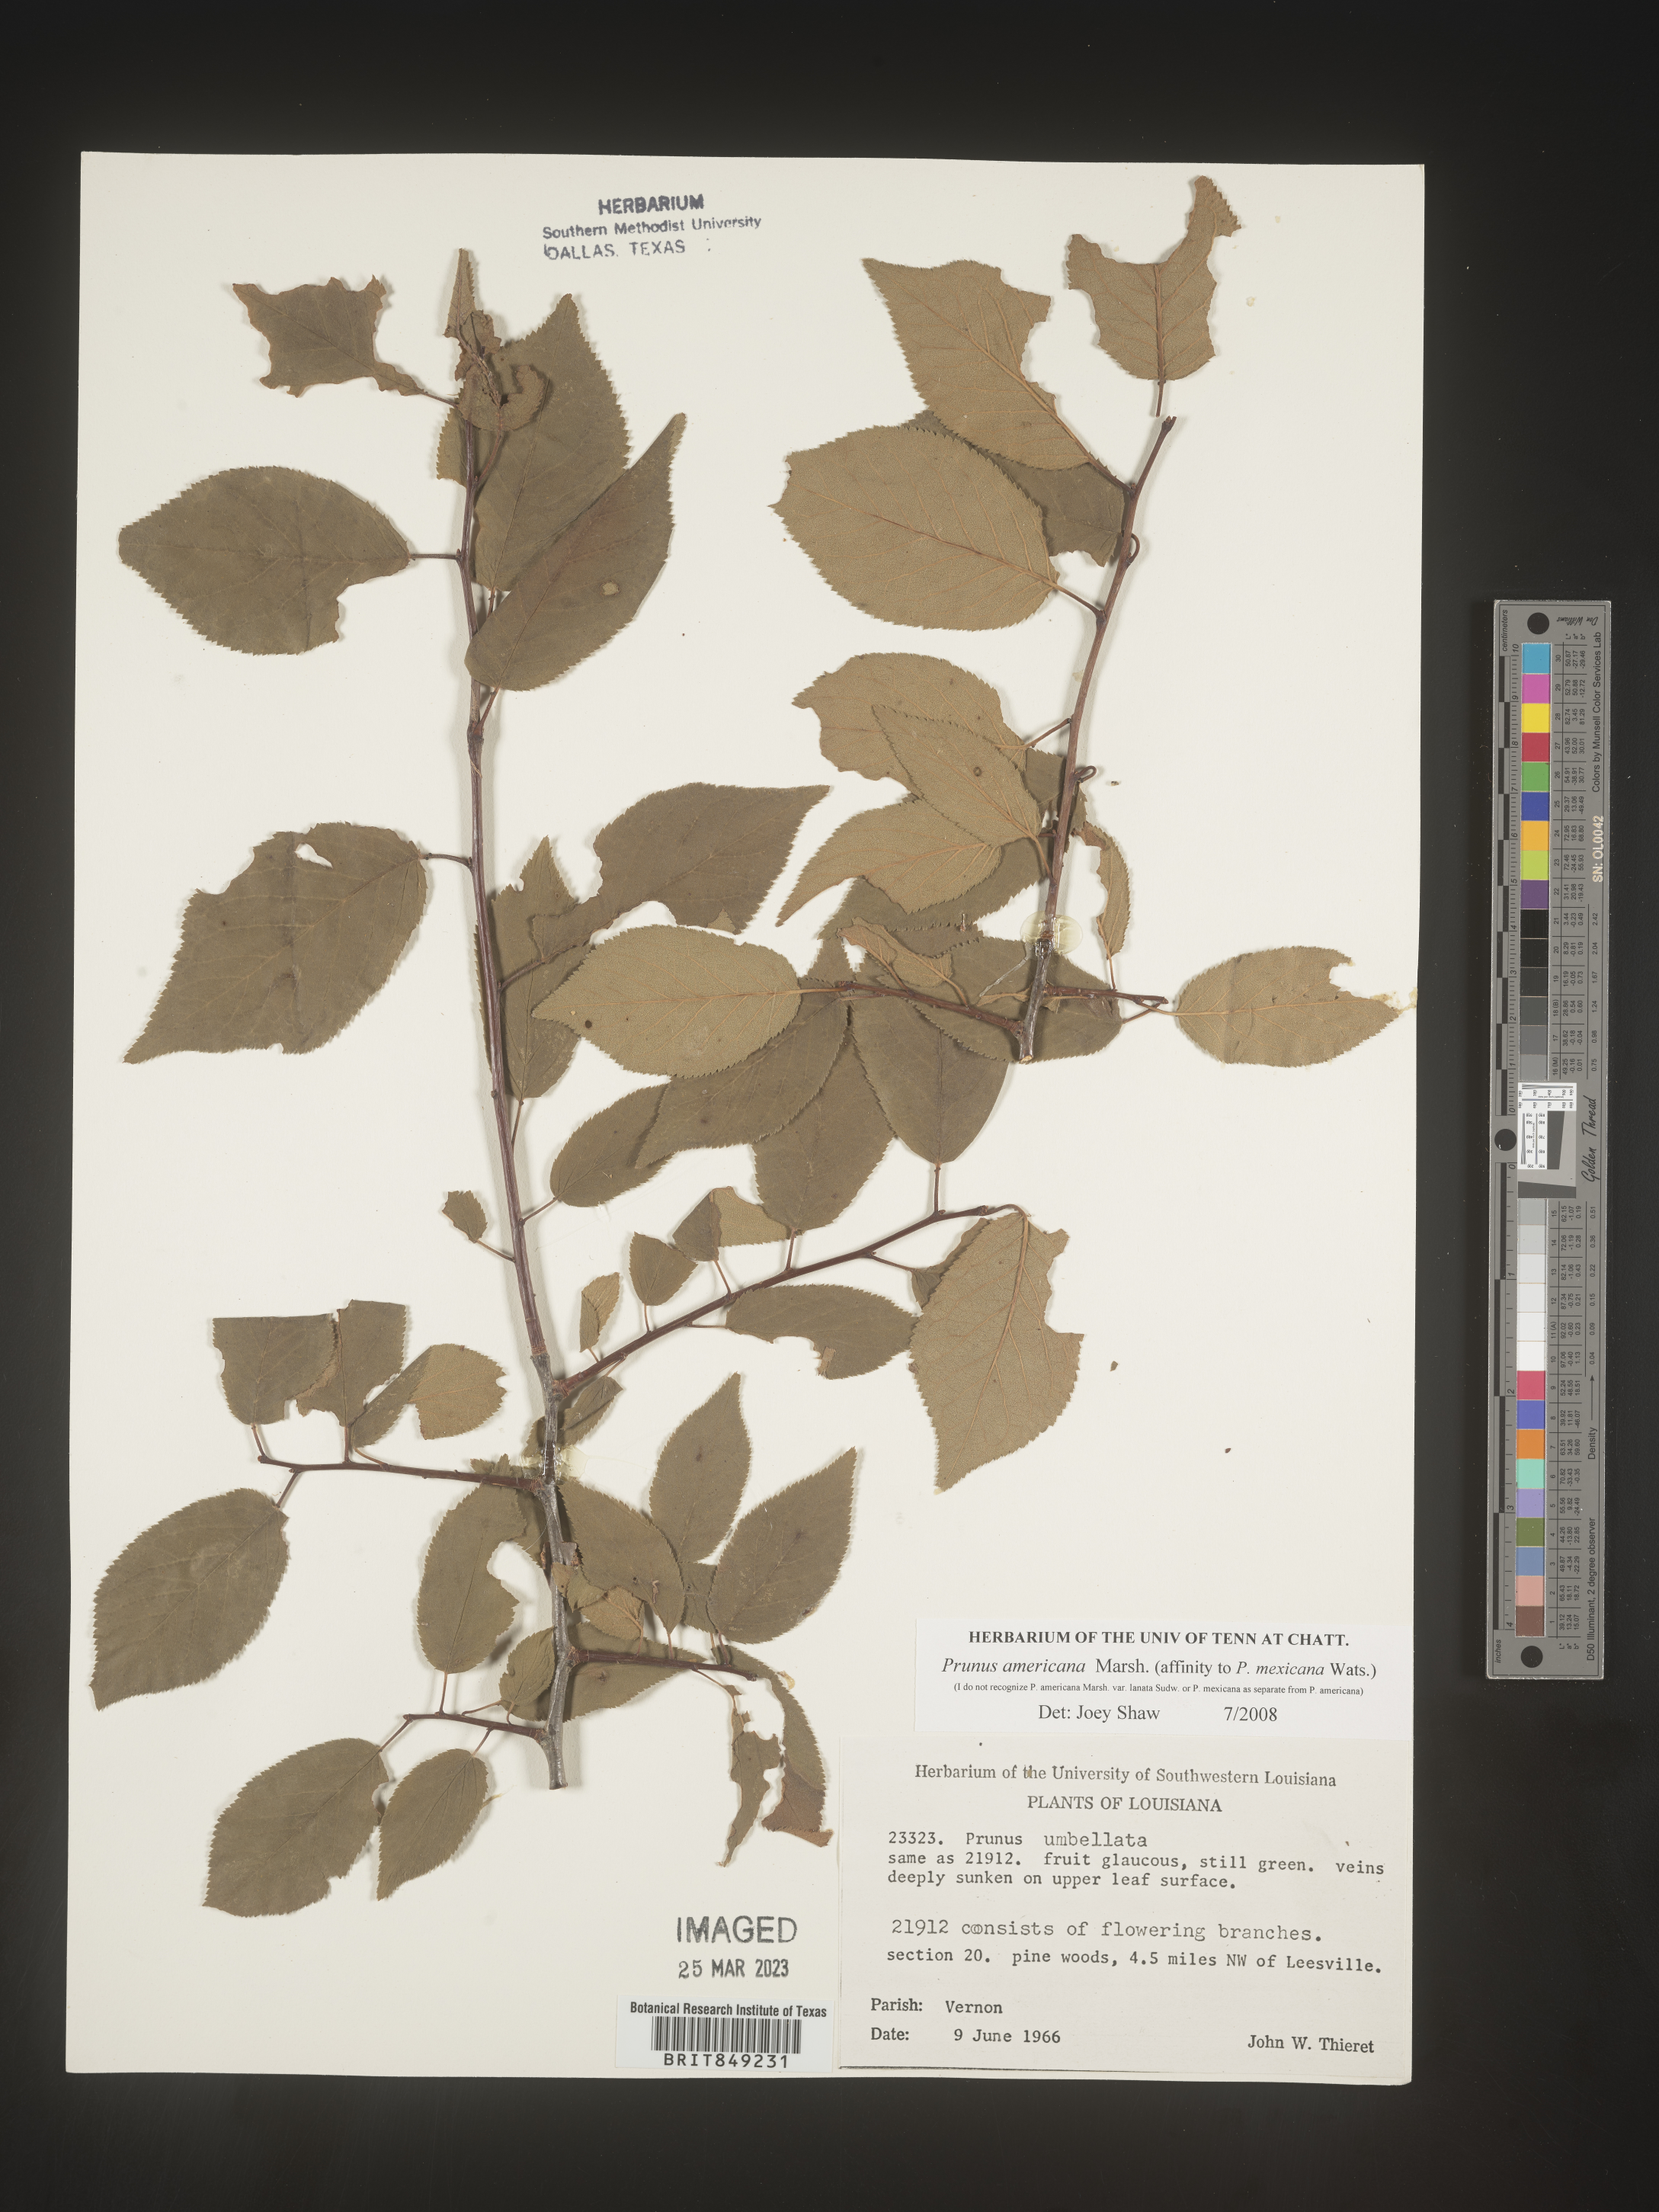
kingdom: Plantae
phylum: Tracheophyta
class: Magnoliopsida
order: Rosales
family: Rosaceae
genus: Prunus
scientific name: Prunus americana
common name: American plum
